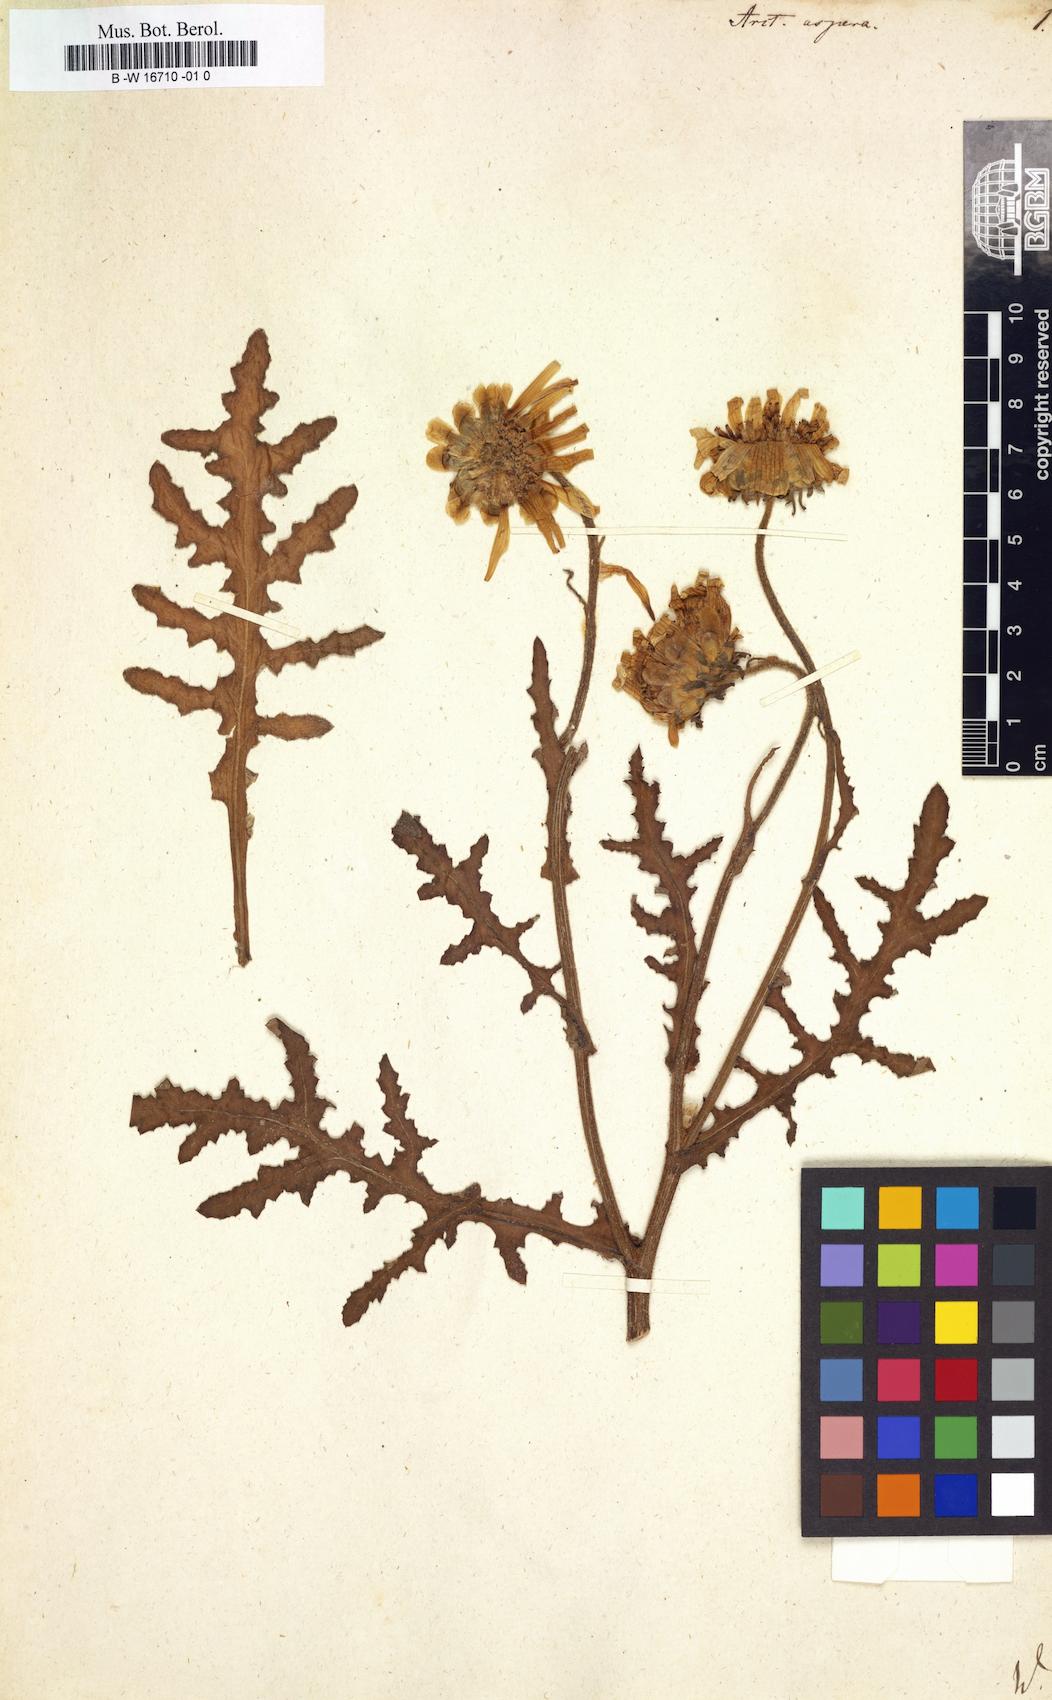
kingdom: Plantae
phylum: Tracheophyta
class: Magnoliopsida
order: Asterales
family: Asteraceae
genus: Arctotis
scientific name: Arctotis aspera
